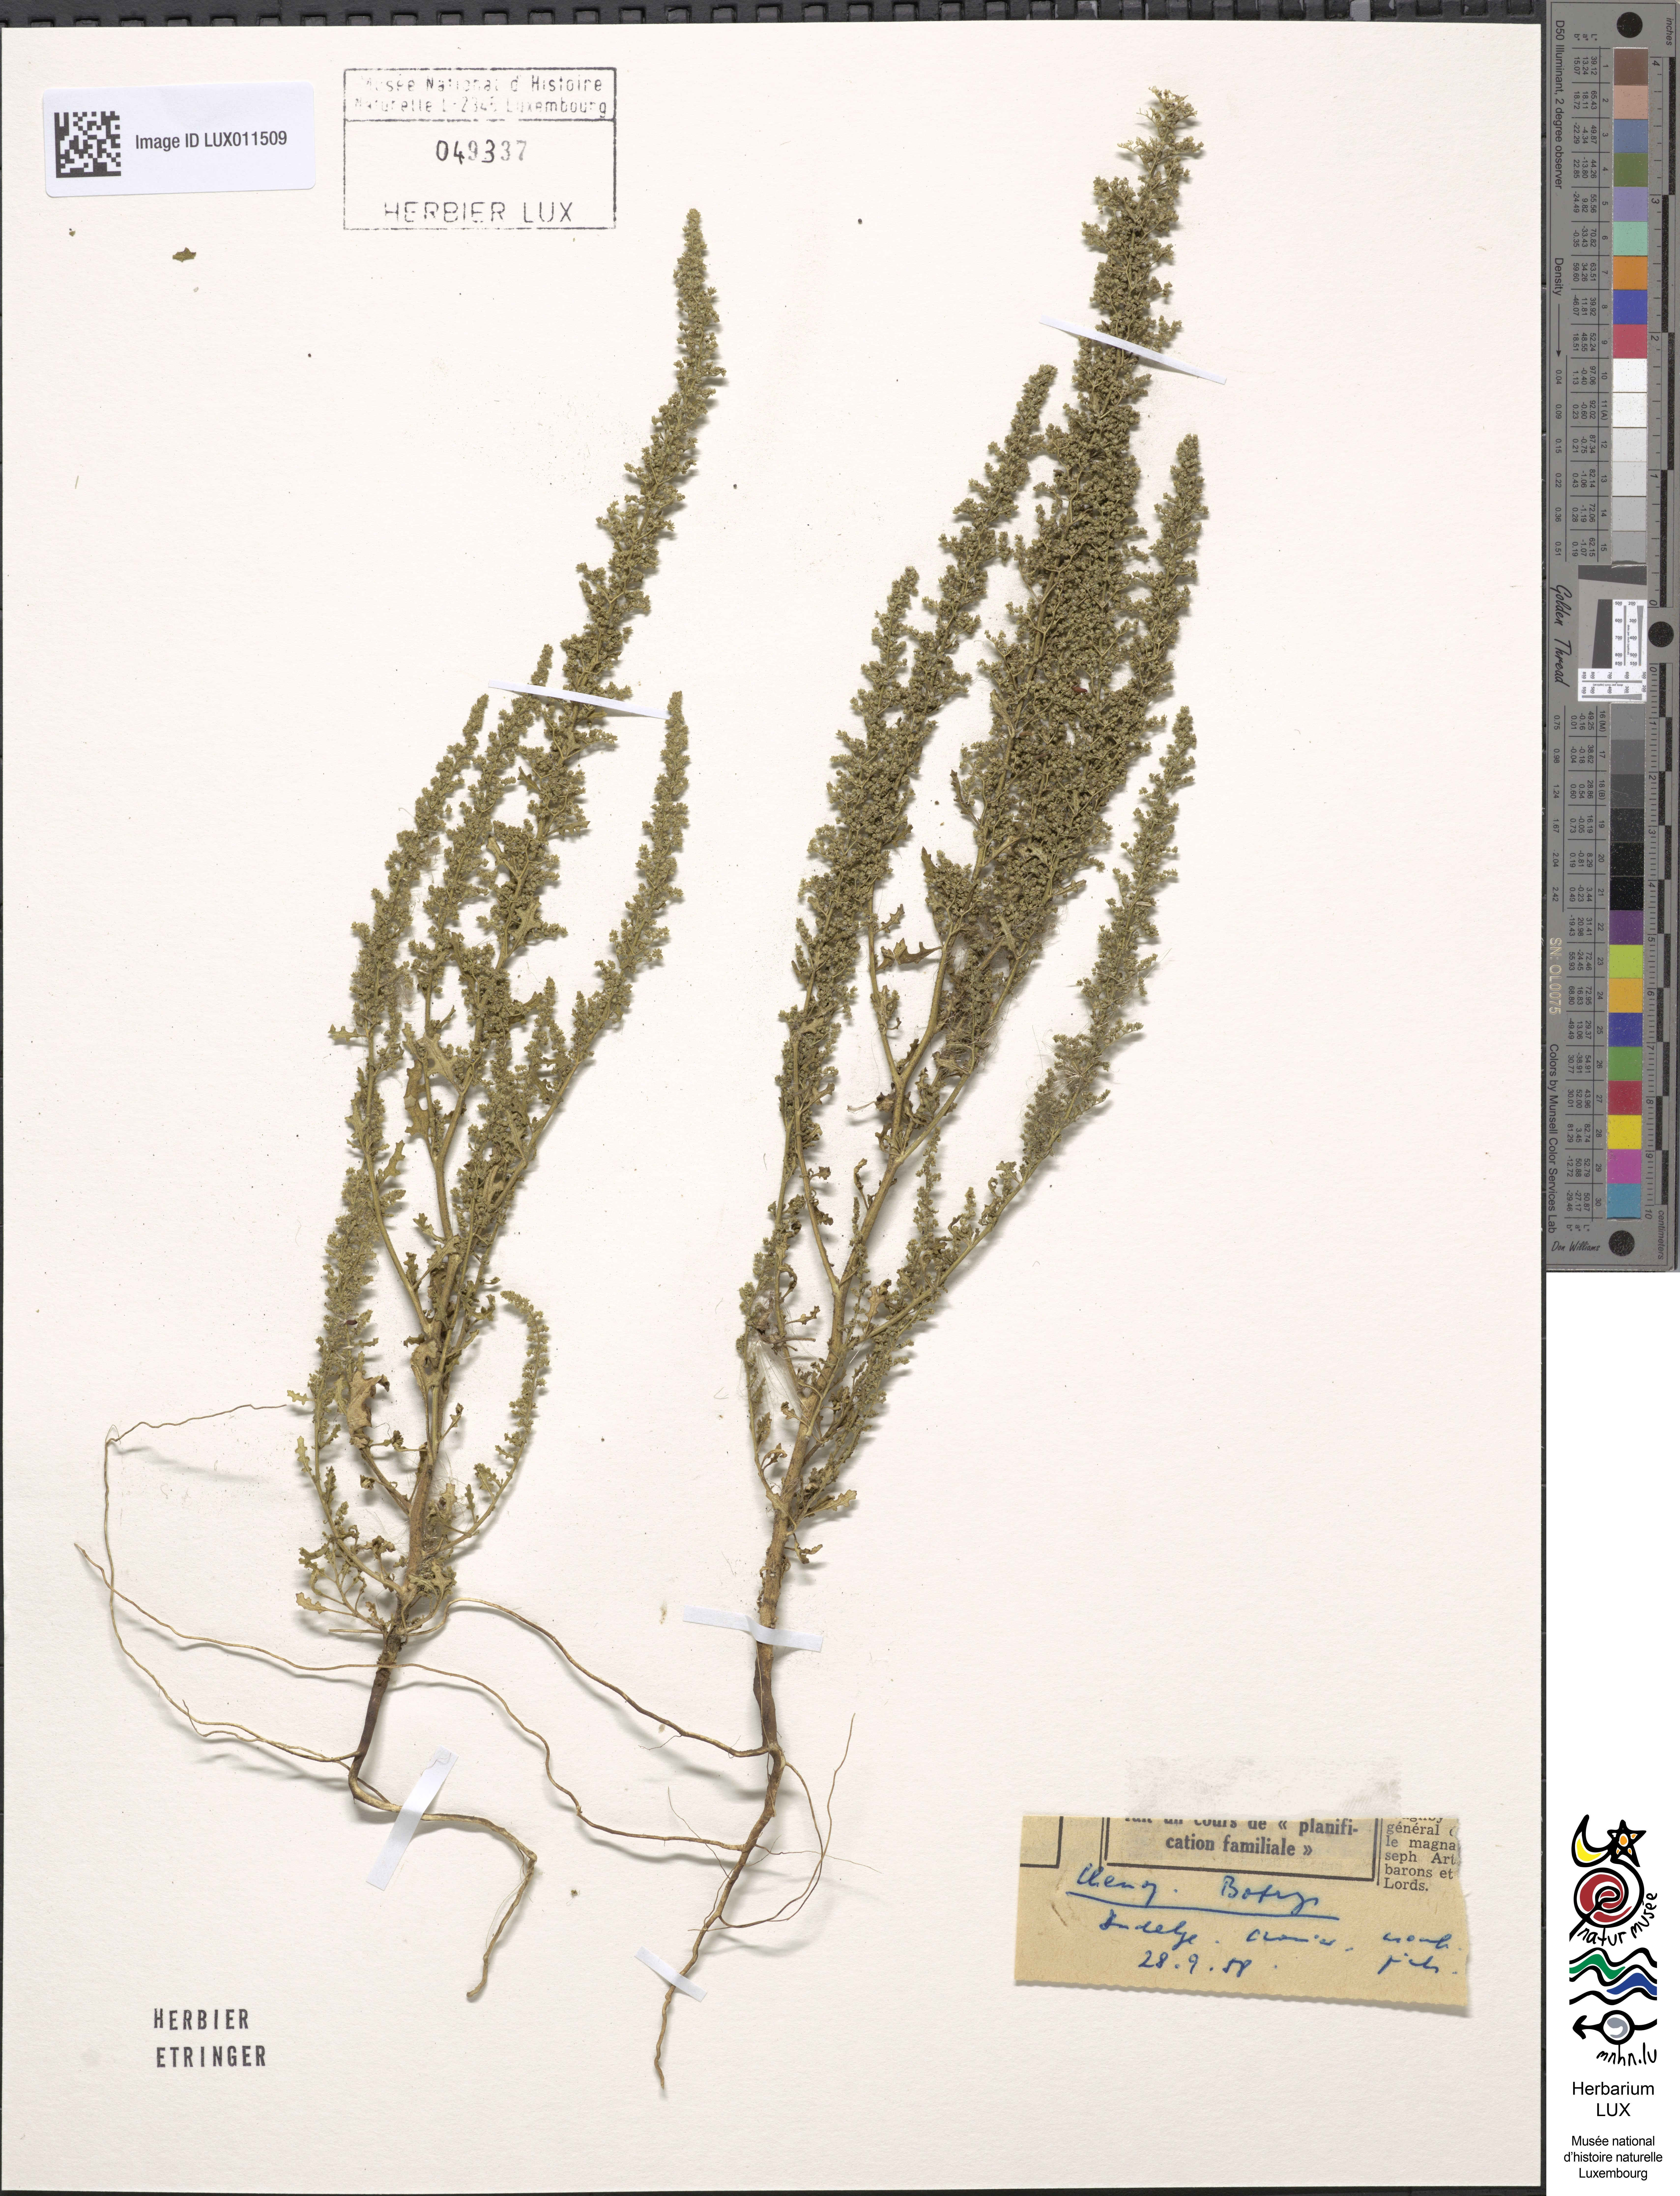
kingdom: Plantae
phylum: Tracheophyta
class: Magnoliopsida
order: Caryophyllales
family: Amaranthaceae
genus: Dysphania
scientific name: Dysphania botrys
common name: Feather-geranium
